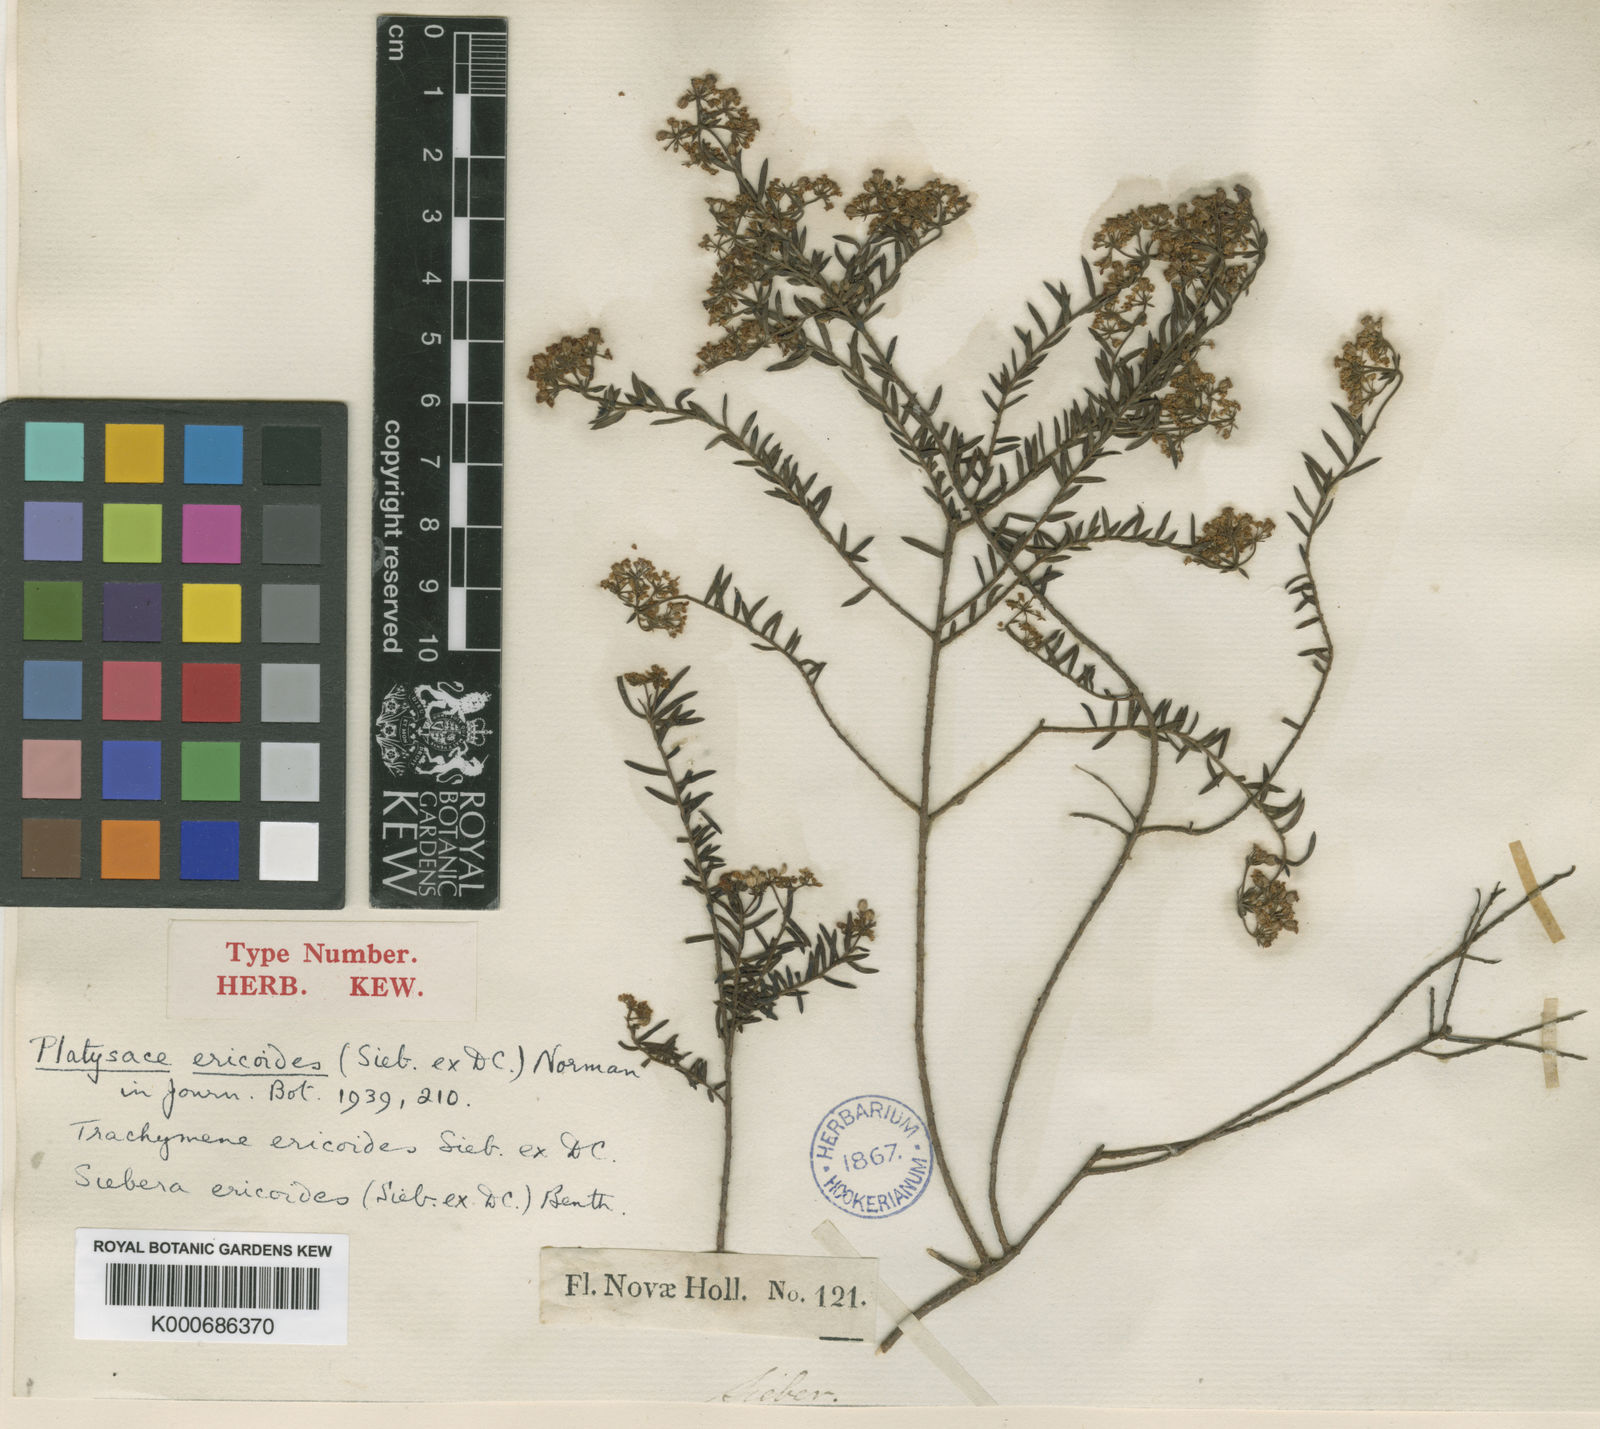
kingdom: Plantae
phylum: Tracheophyta
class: Magnoliopsida
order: Apiales
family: Apiaceae
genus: Platysace
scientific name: Platysace ericoides
